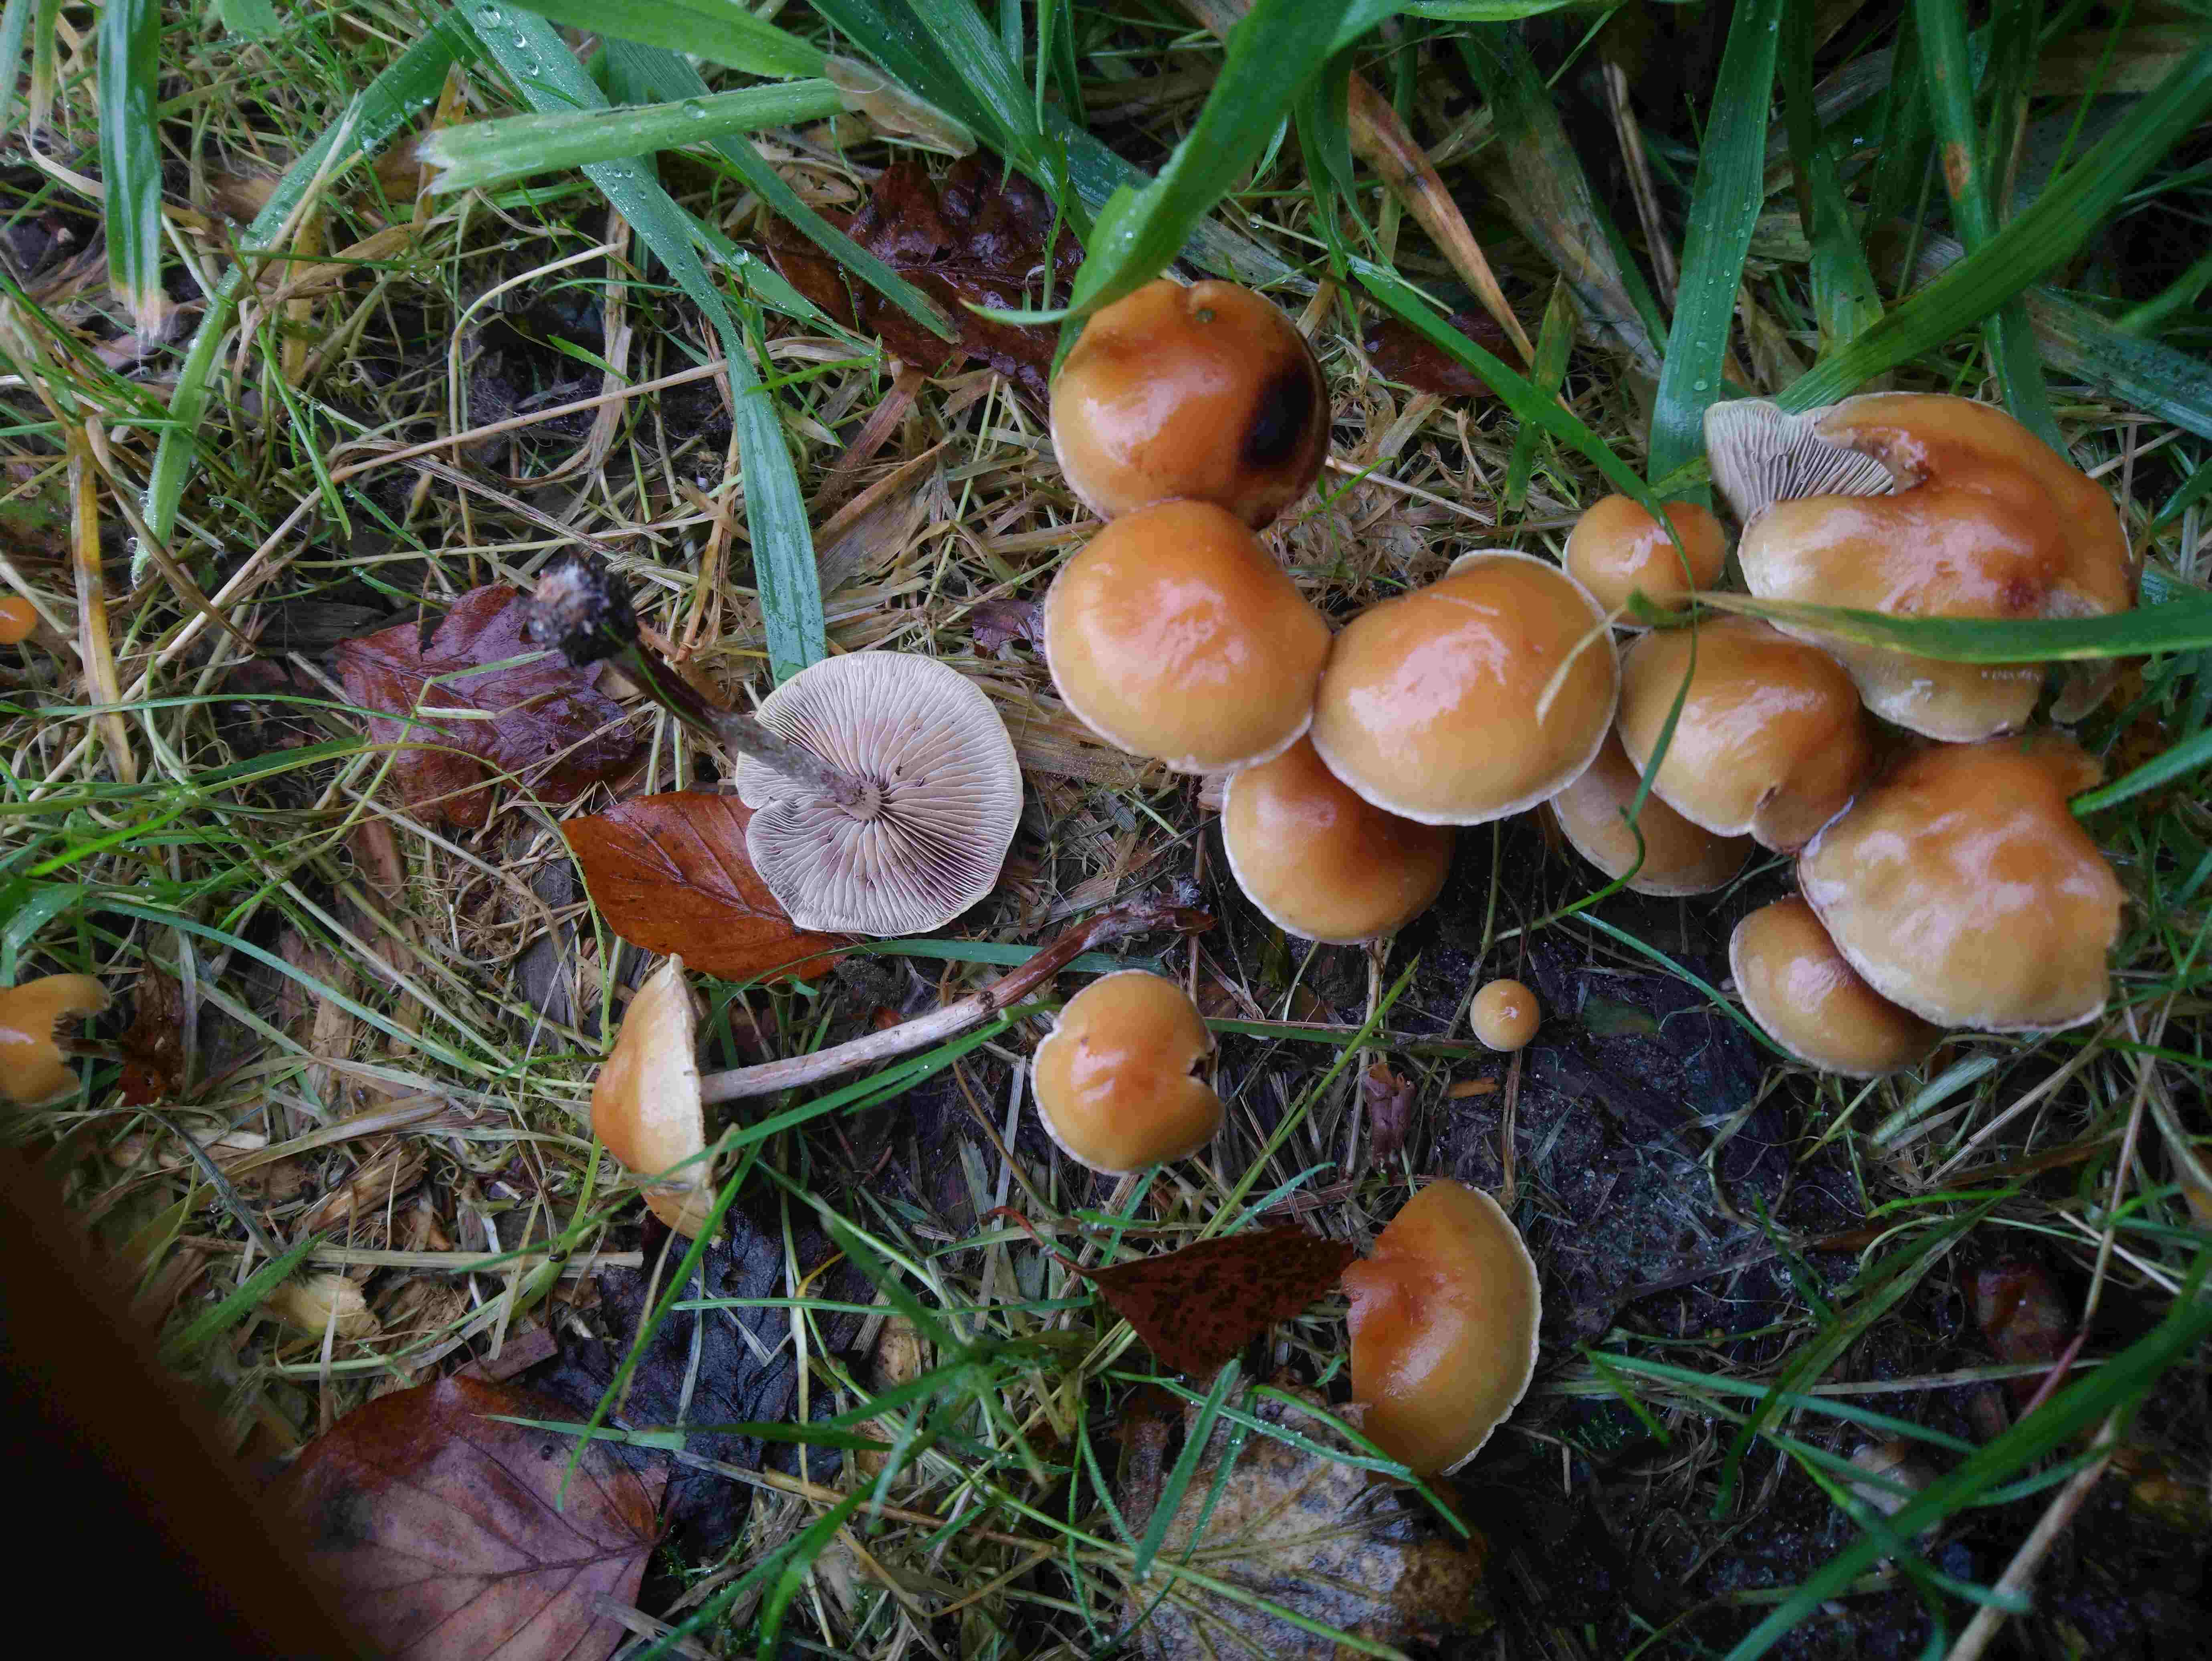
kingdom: Fungi
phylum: Basidiomycota
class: Agaricomycetes
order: Agaricales
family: Strophariaceae
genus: Hypholoma
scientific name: Hypholoma marginatum
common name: enlig svovlhat
